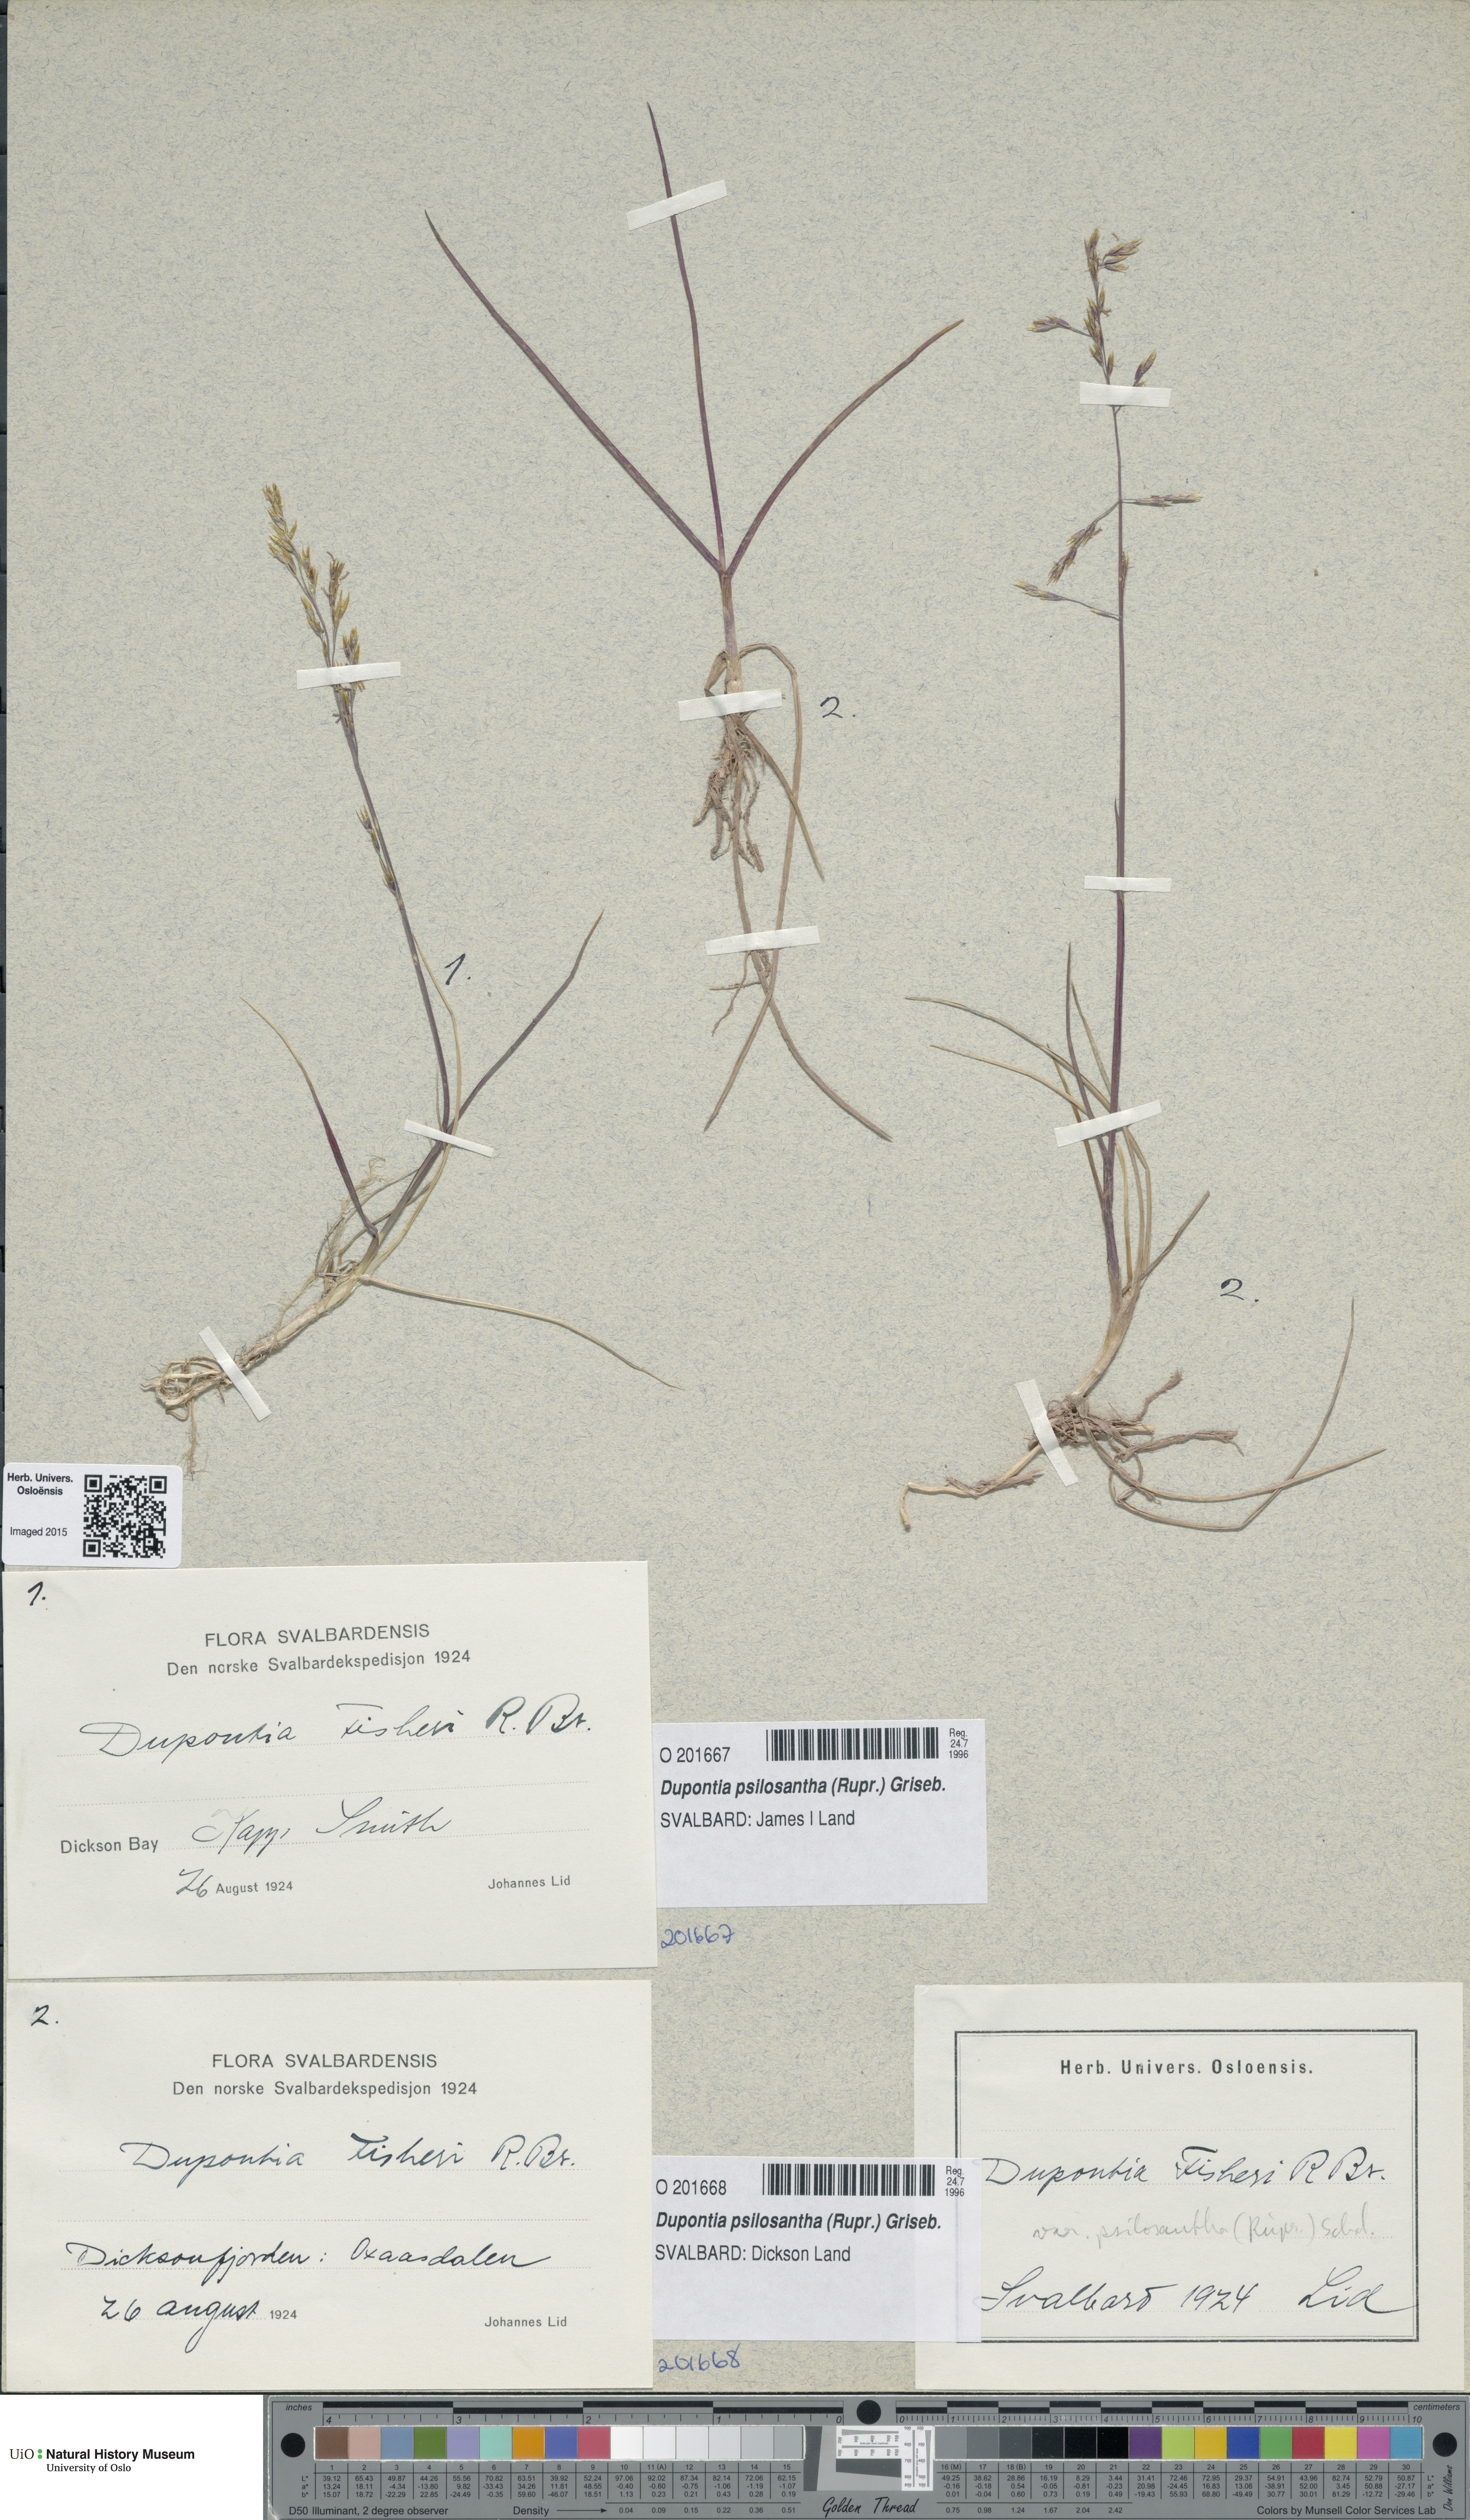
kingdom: Plantae
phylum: Tracheophyta
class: Liliopsida
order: Poales
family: Poaceae
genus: Dupontia
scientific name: Dupontia fisheri
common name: Tundra grass
